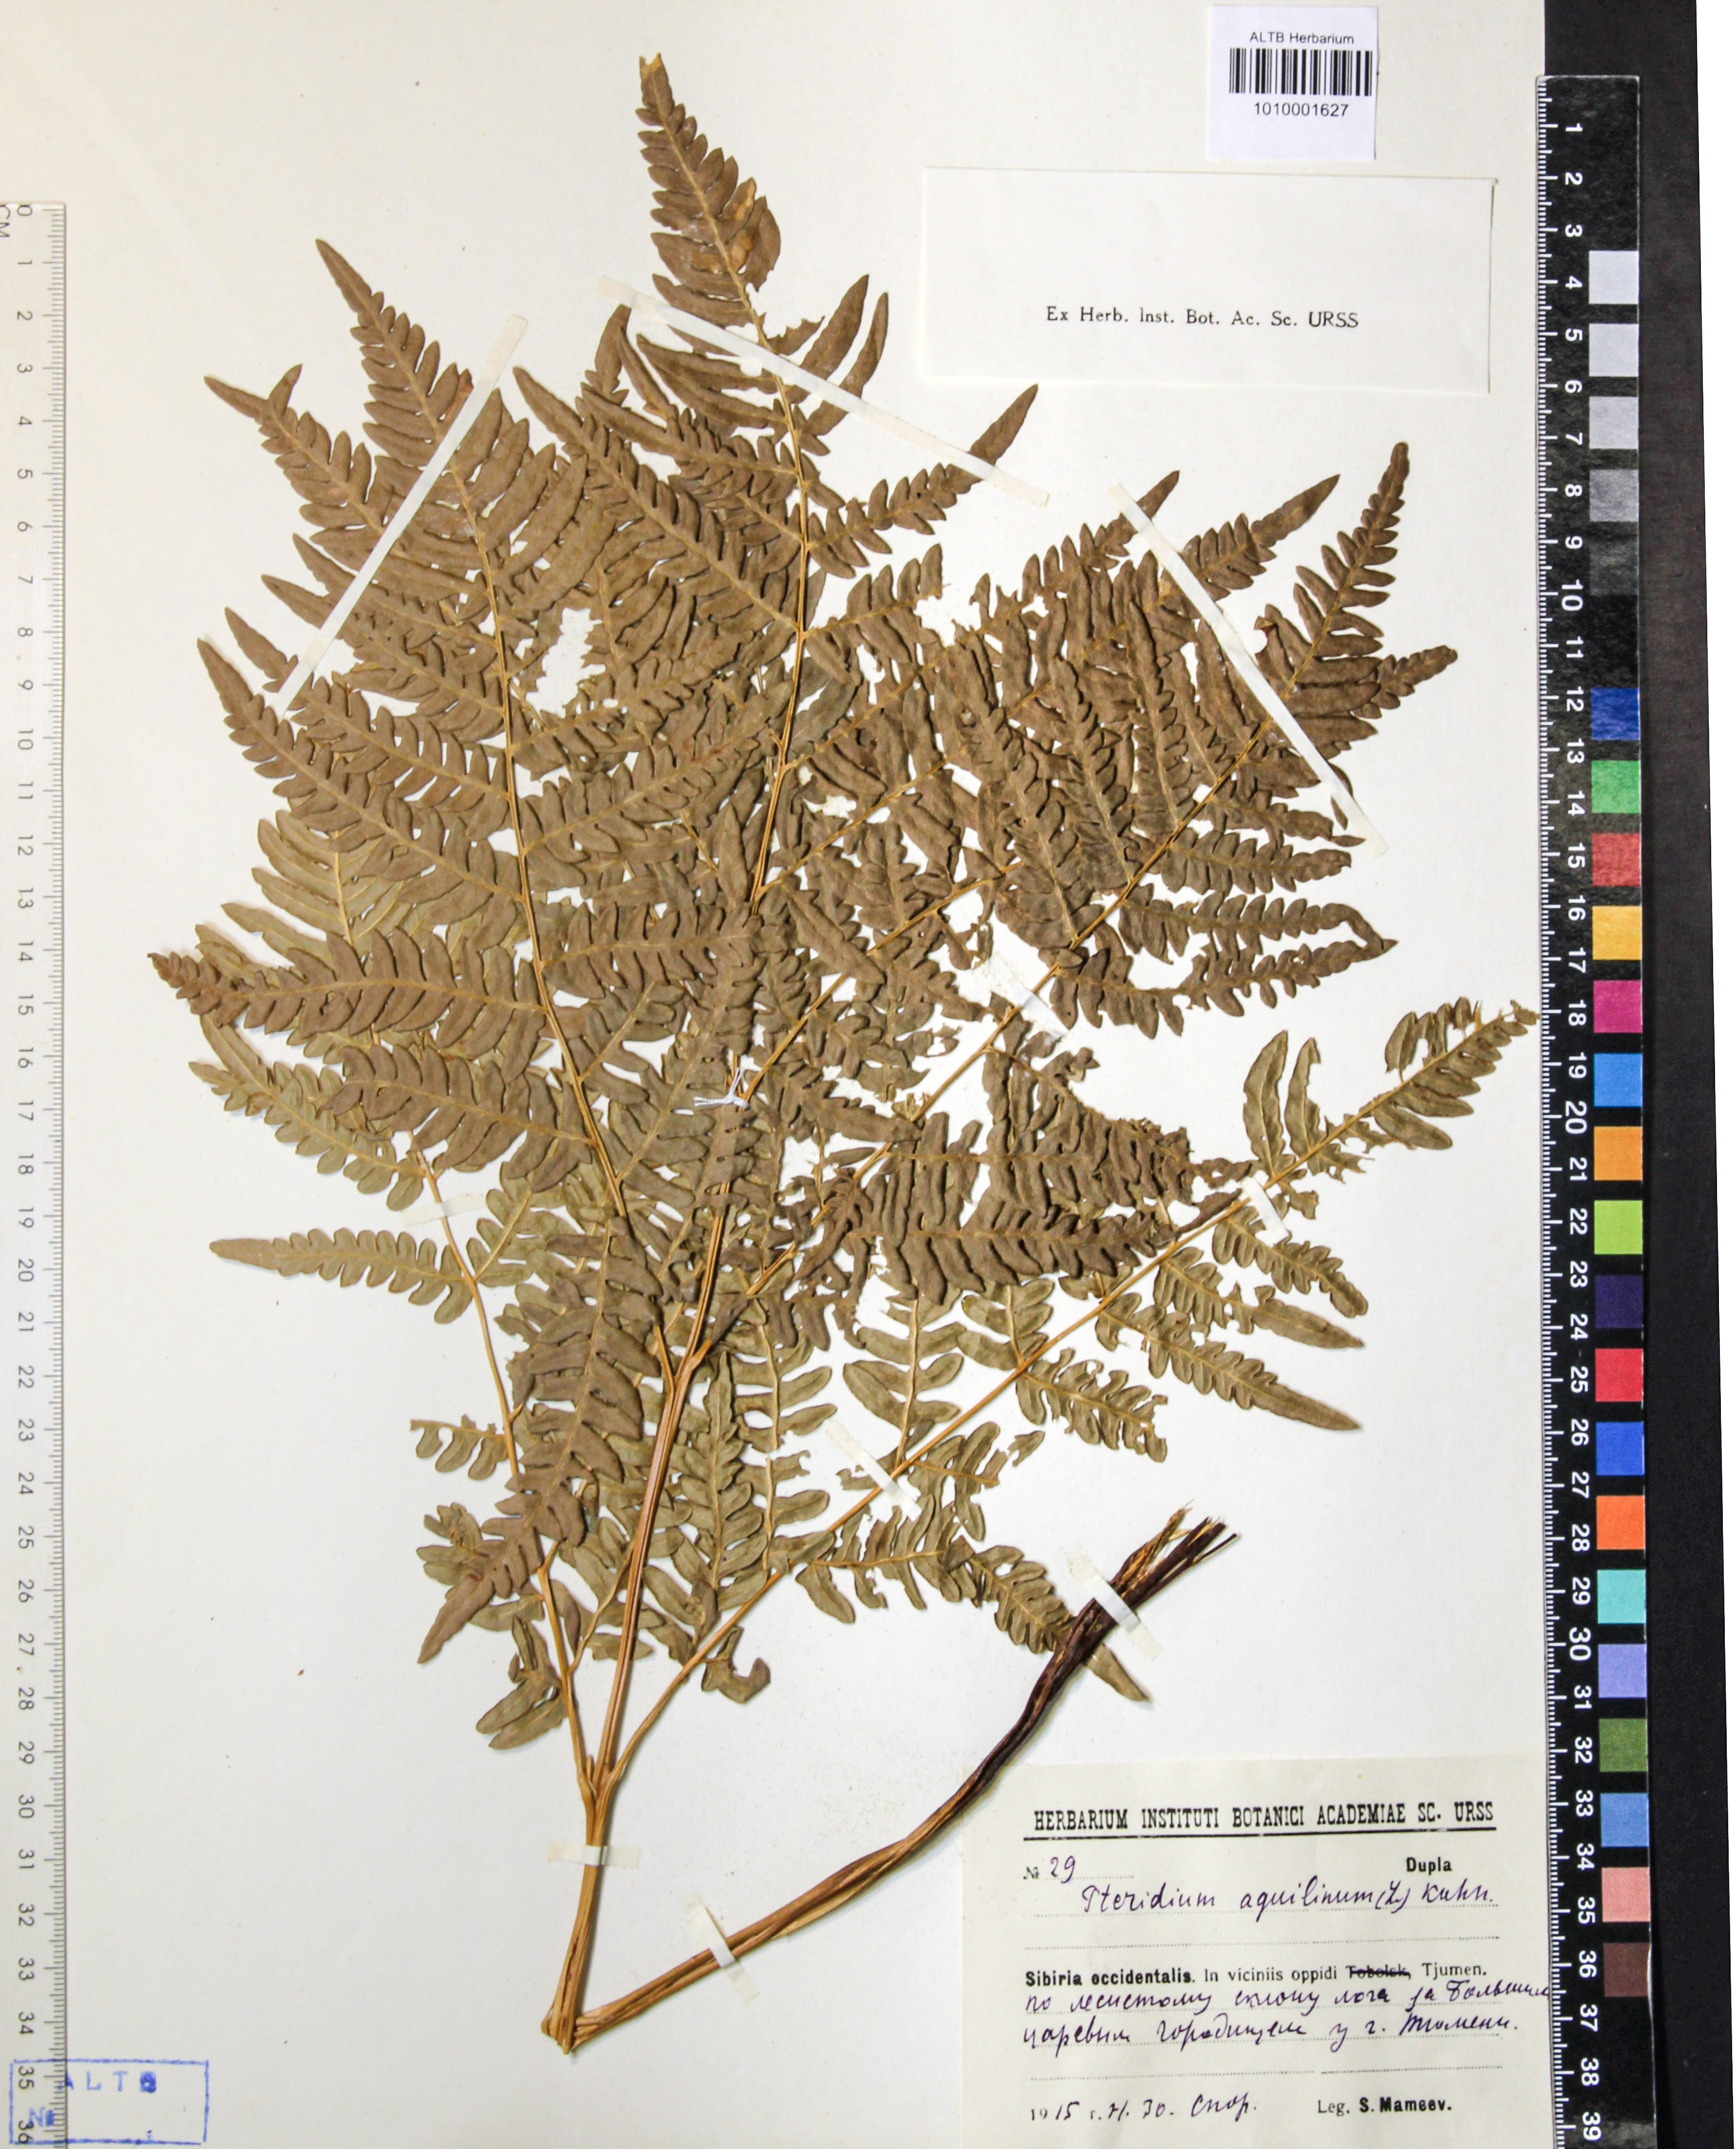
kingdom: Plantae
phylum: Tracheophyta
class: Polypodiopsida
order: Polypodiales
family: Dennstaedtiaceae
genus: Pteridium
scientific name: Pteridium aquilinum
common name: Bracken
